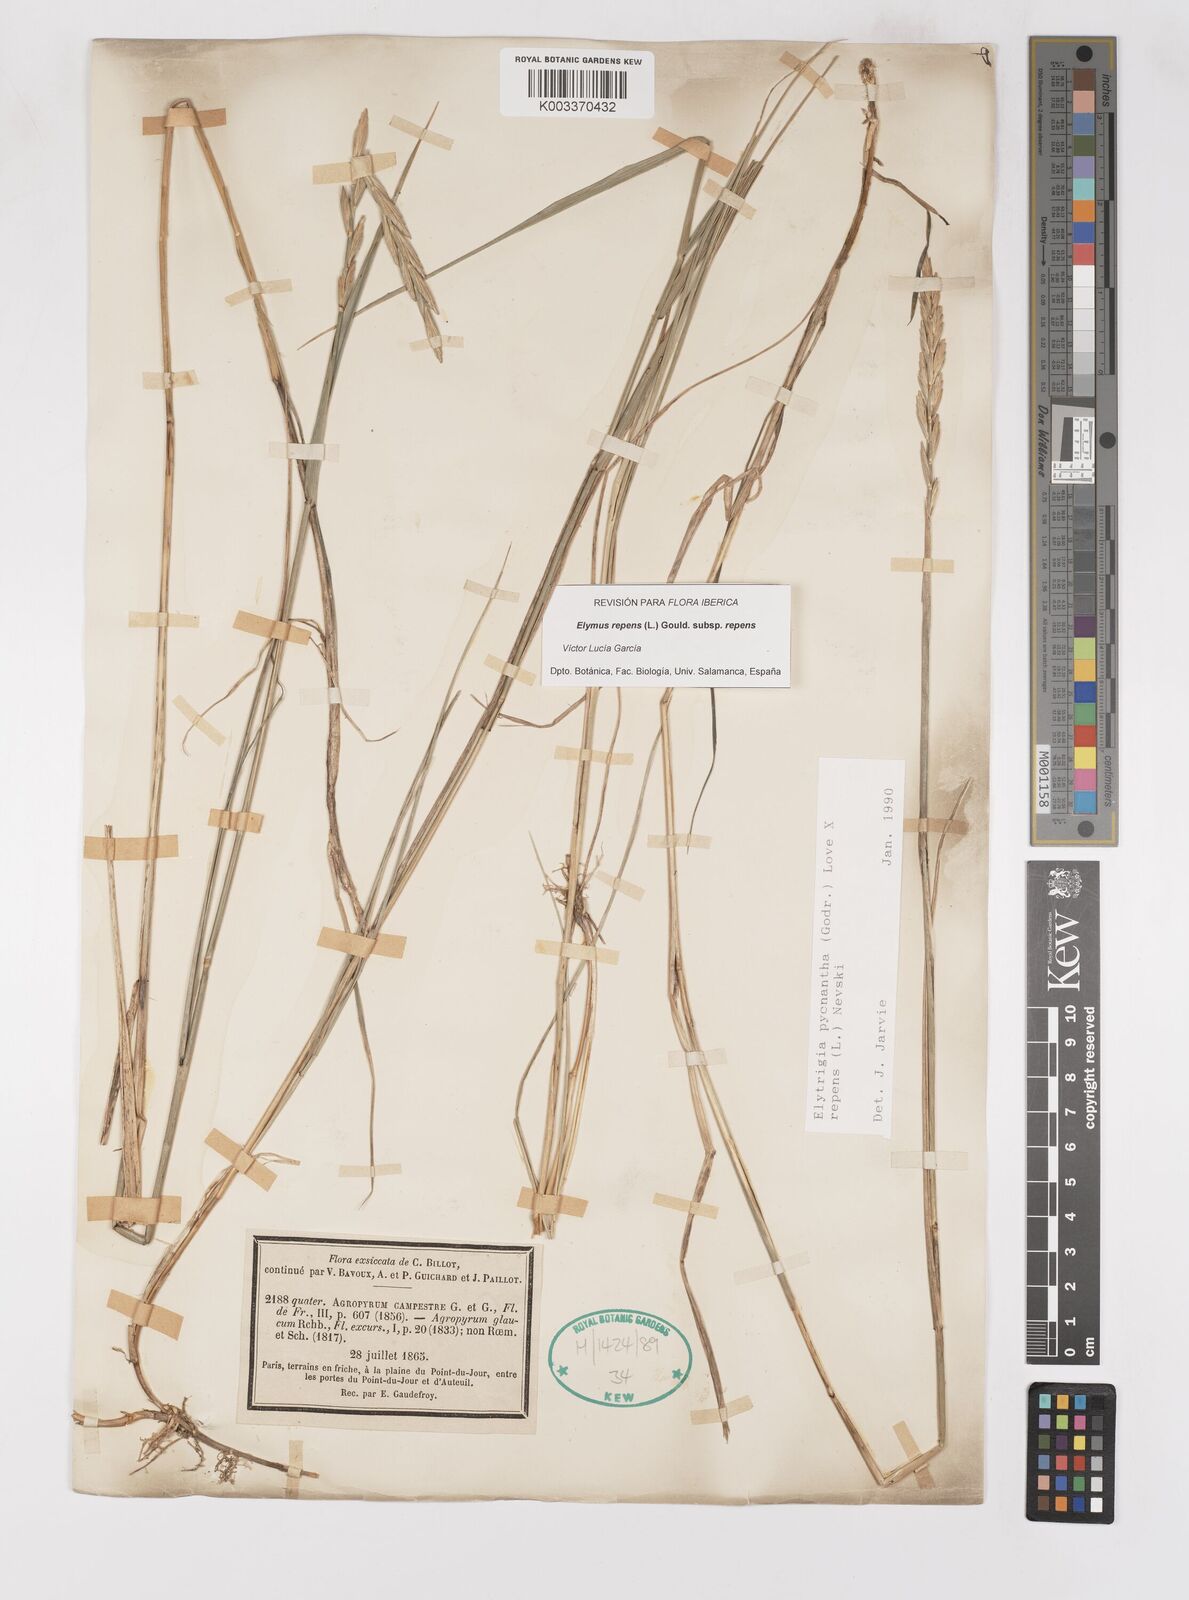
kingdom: Plantae
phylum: Tracheophyta
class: Liliopsida
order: Poales
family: Poaceae
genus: Elymus
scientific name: Elymus oliveri
